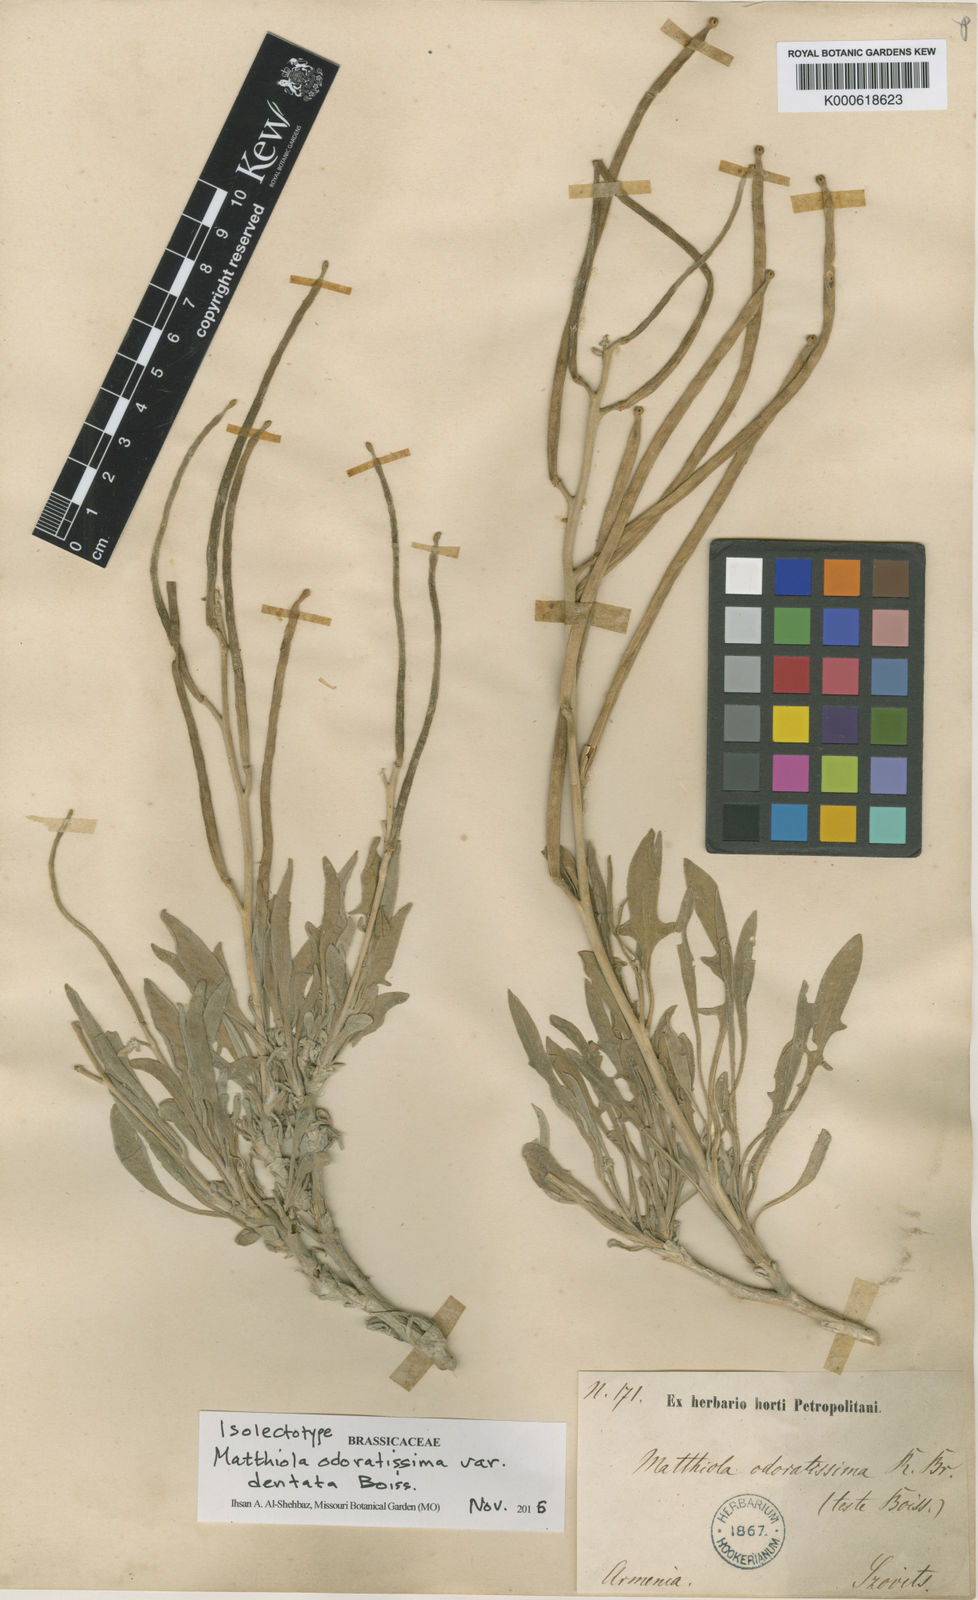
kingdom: Plantae
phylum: Tracheophyta
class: Magnoliopsida
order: Brassicales
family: Brassicaceae
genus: Matthiola
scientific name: Matthiola
